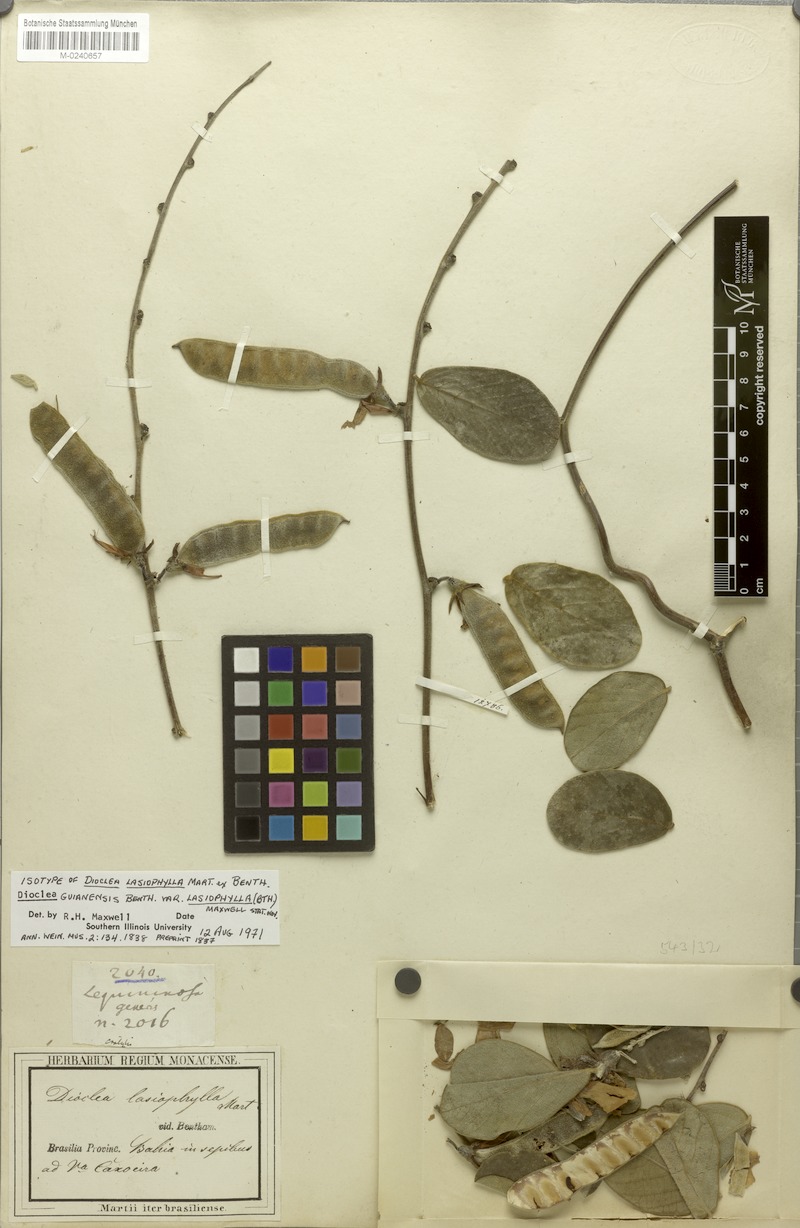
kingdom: Plantae
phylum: Tracheophyta
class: Magnoliopsida
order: Fabales
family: Fabaceae
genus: Dioclea
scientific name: Dioclea guianensis
